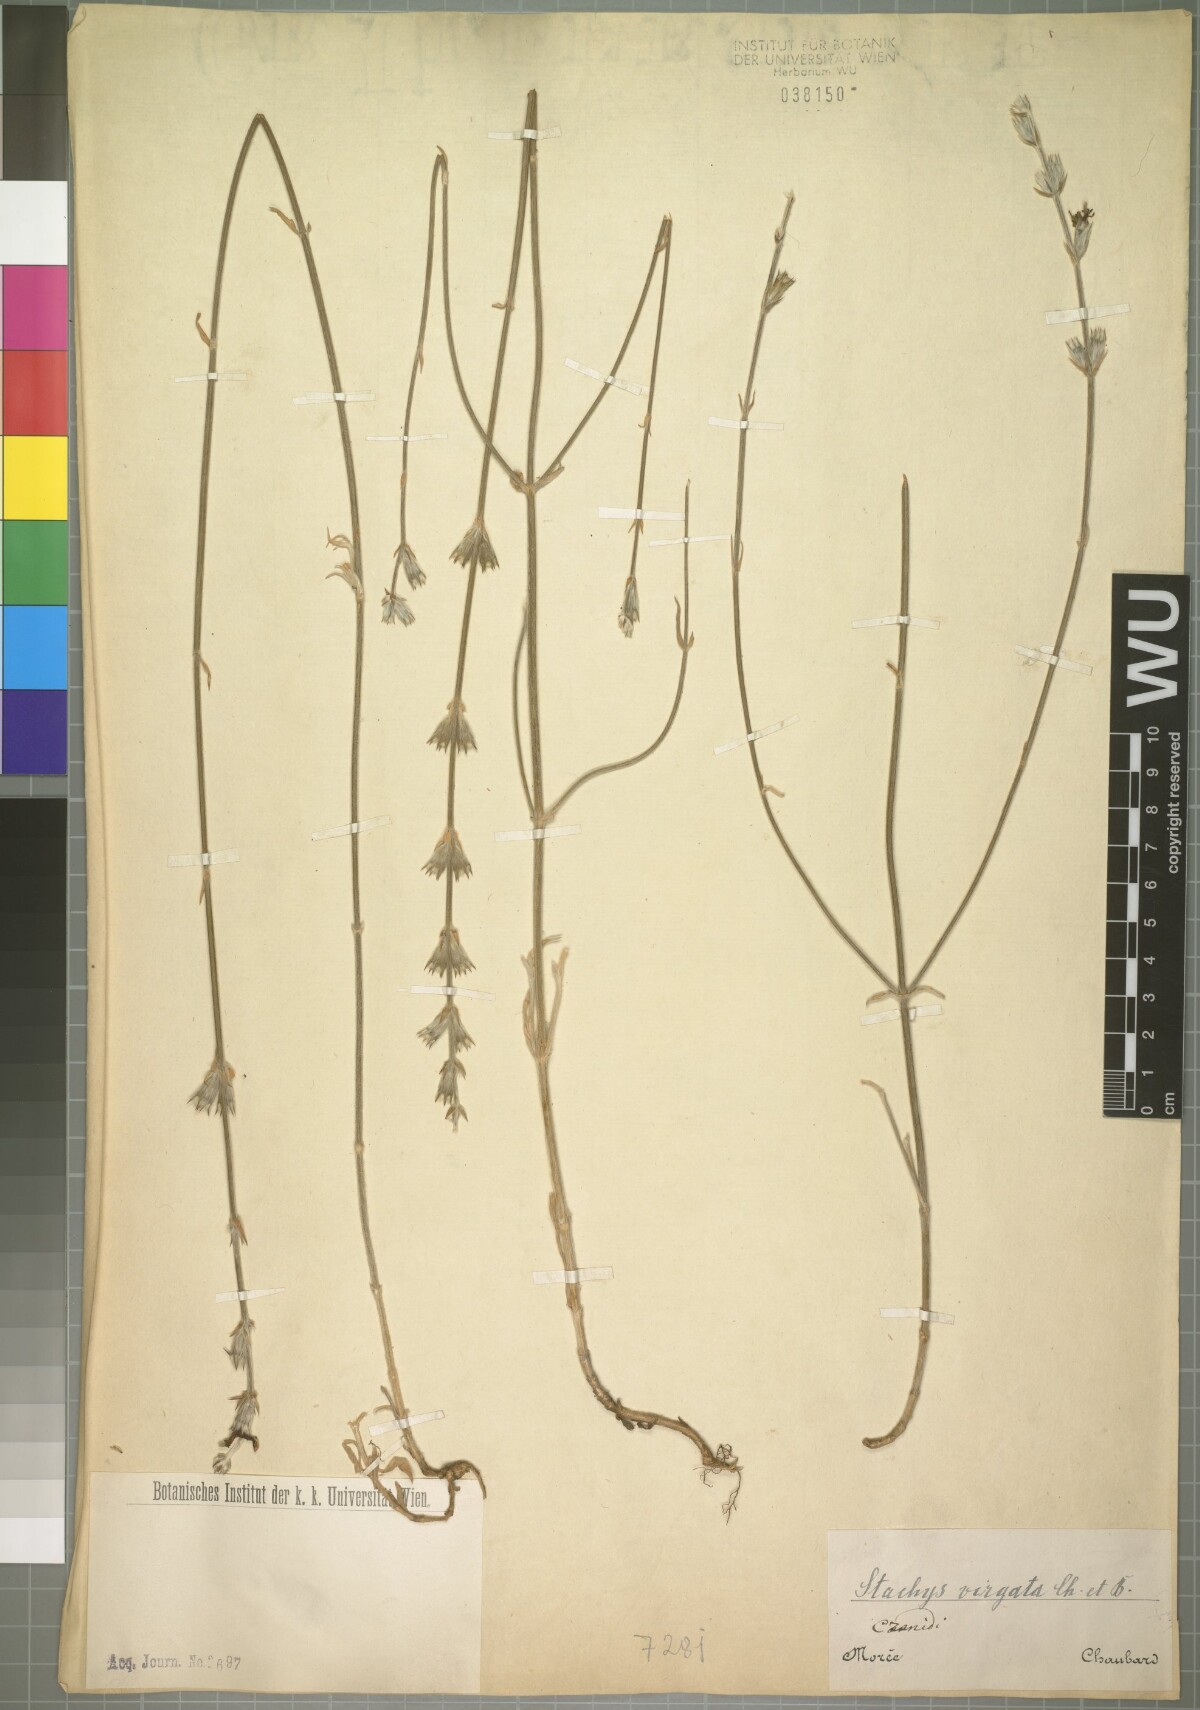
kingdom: Plantae
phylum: Tracheophyta
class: Magnoliopsida
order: Lamiales
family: Lamiaceae
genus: Stachys
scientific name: Stachys virgata
